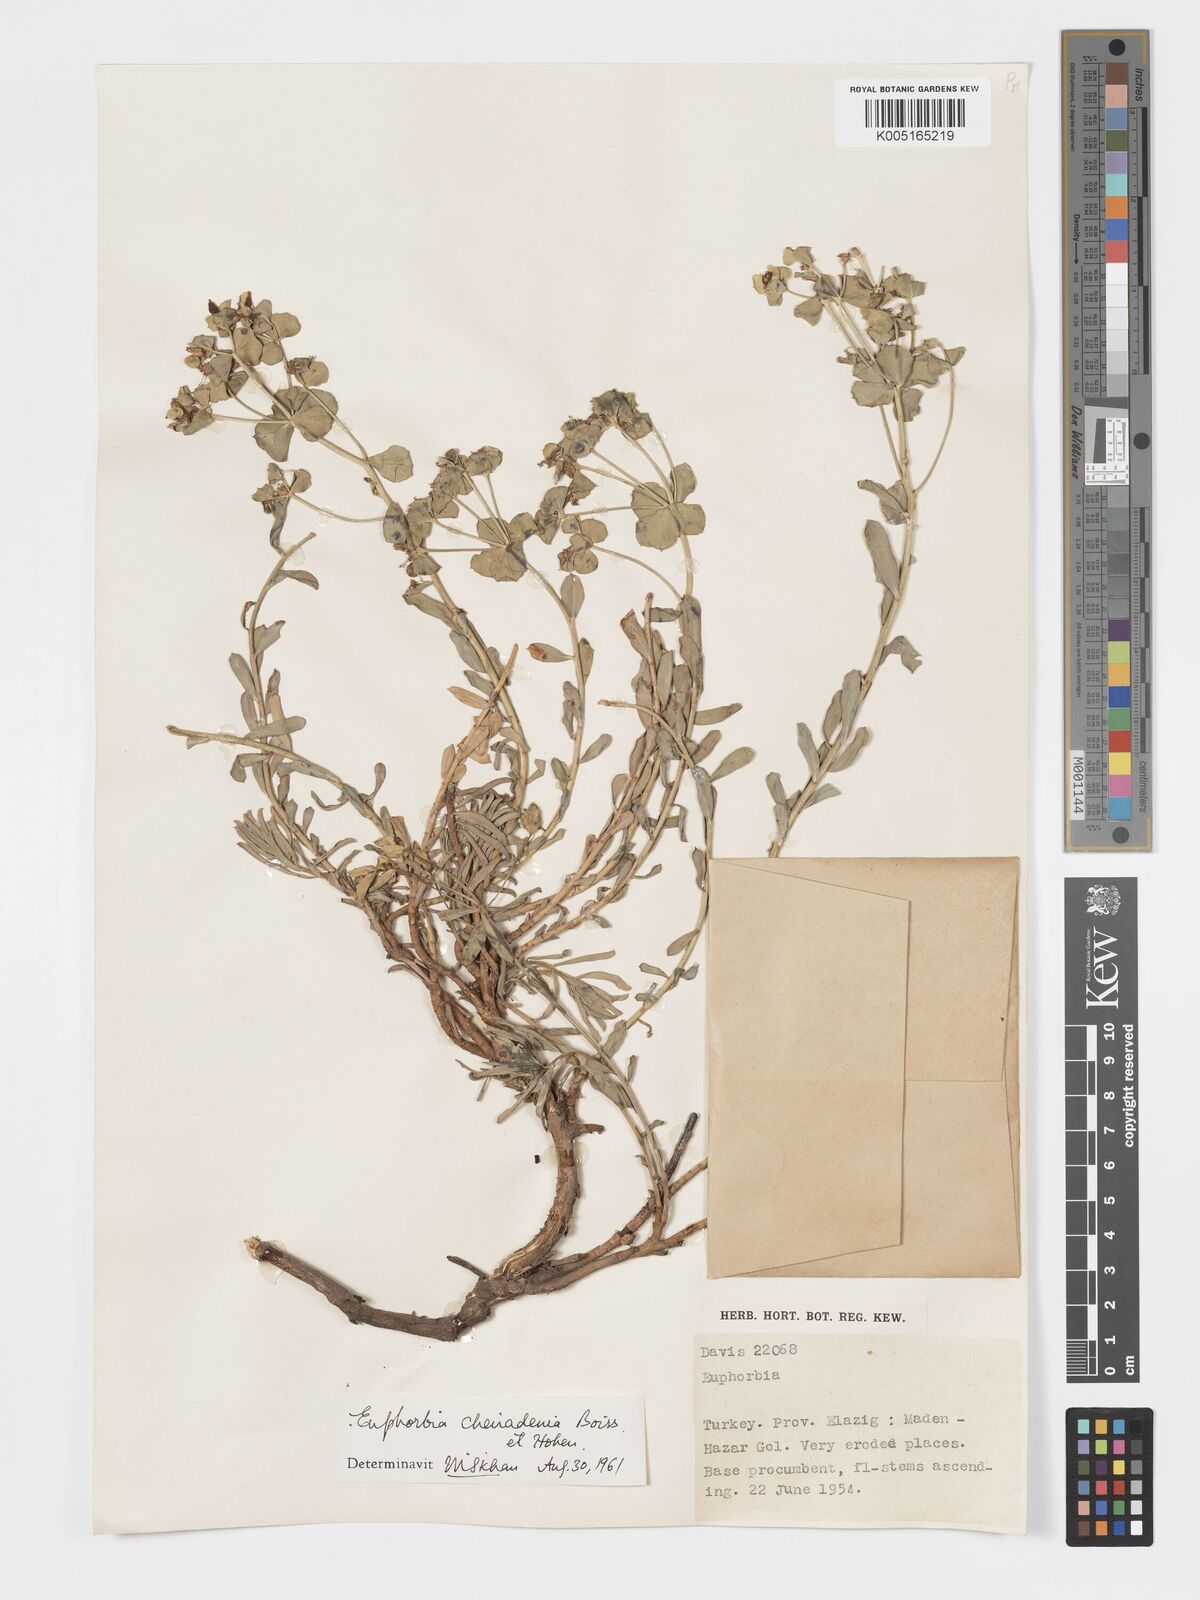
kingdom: Plantae
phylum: Tracheophyta
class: Magnoliopsida
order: Malpighiales
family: Euphorbiaceae
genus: Euphorbia
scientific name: Euphorbia cheiradenia
